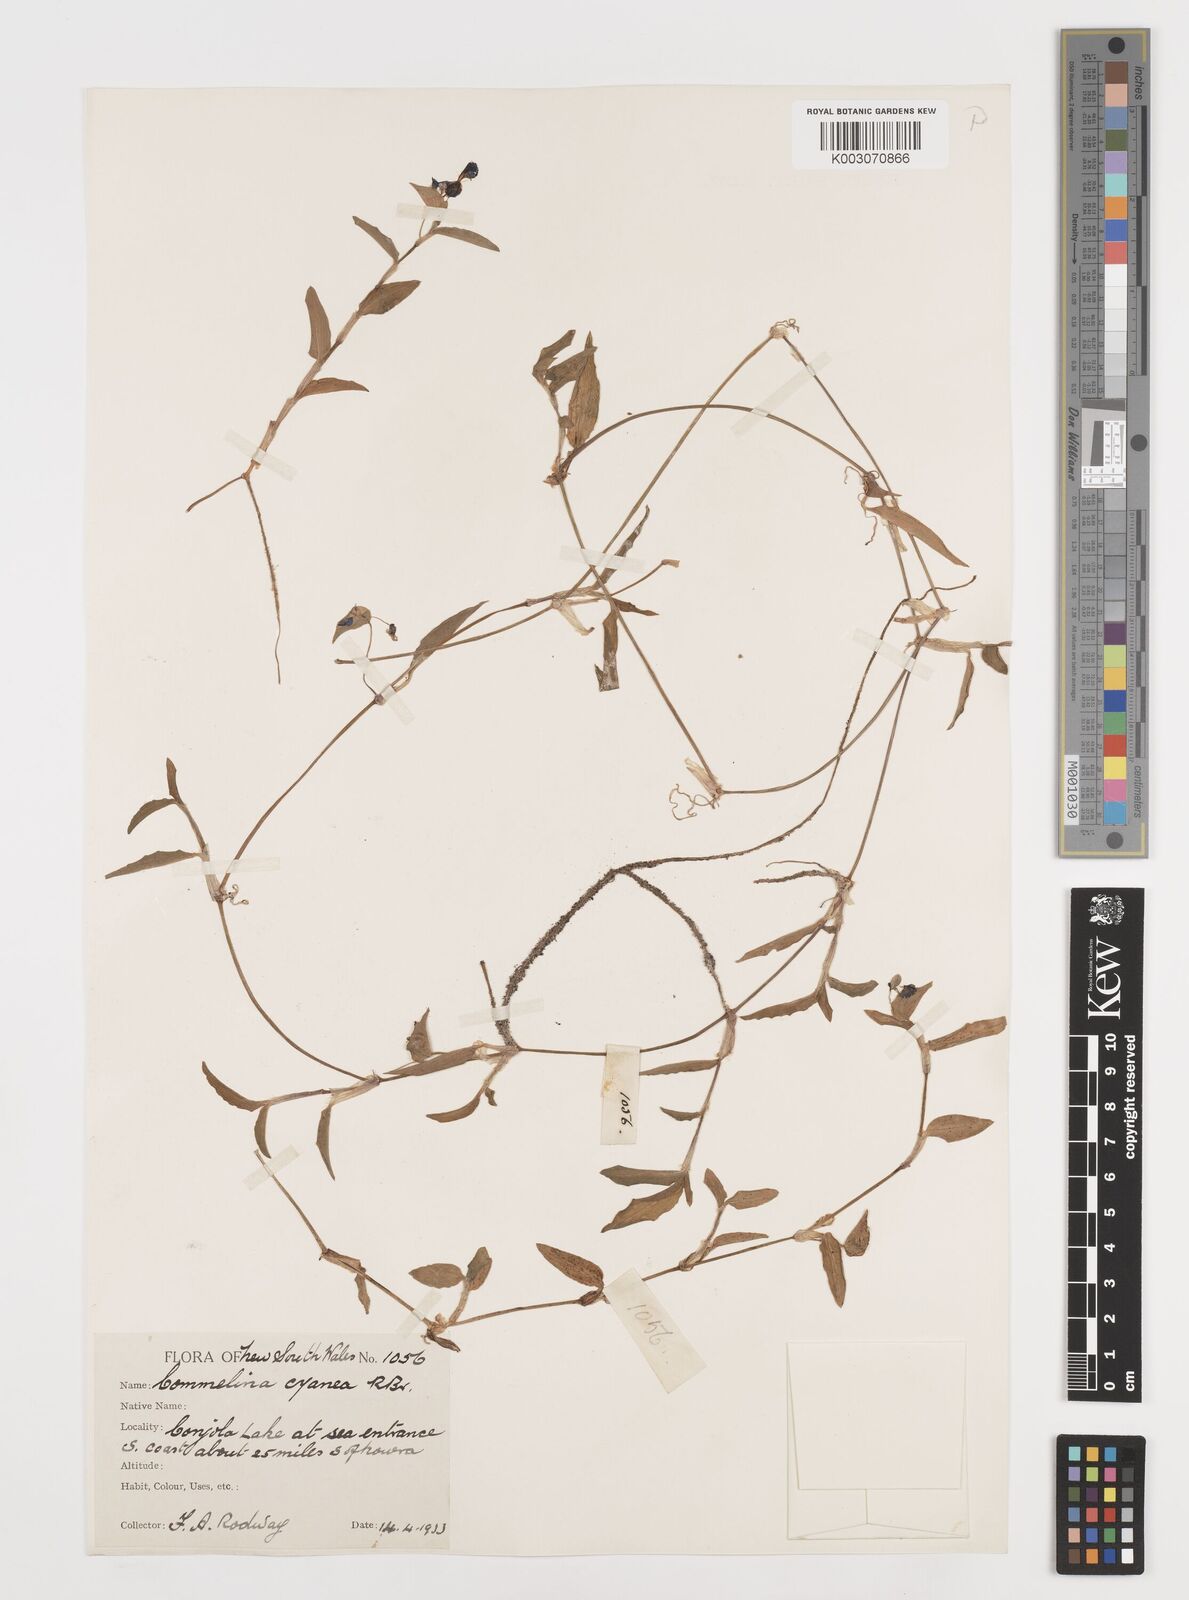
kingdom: Plantae
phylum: Tracheophyta
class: Liliopsida
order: Commelinales
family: Commelinaceae
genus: Commelina
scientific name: Commelina cyanea
